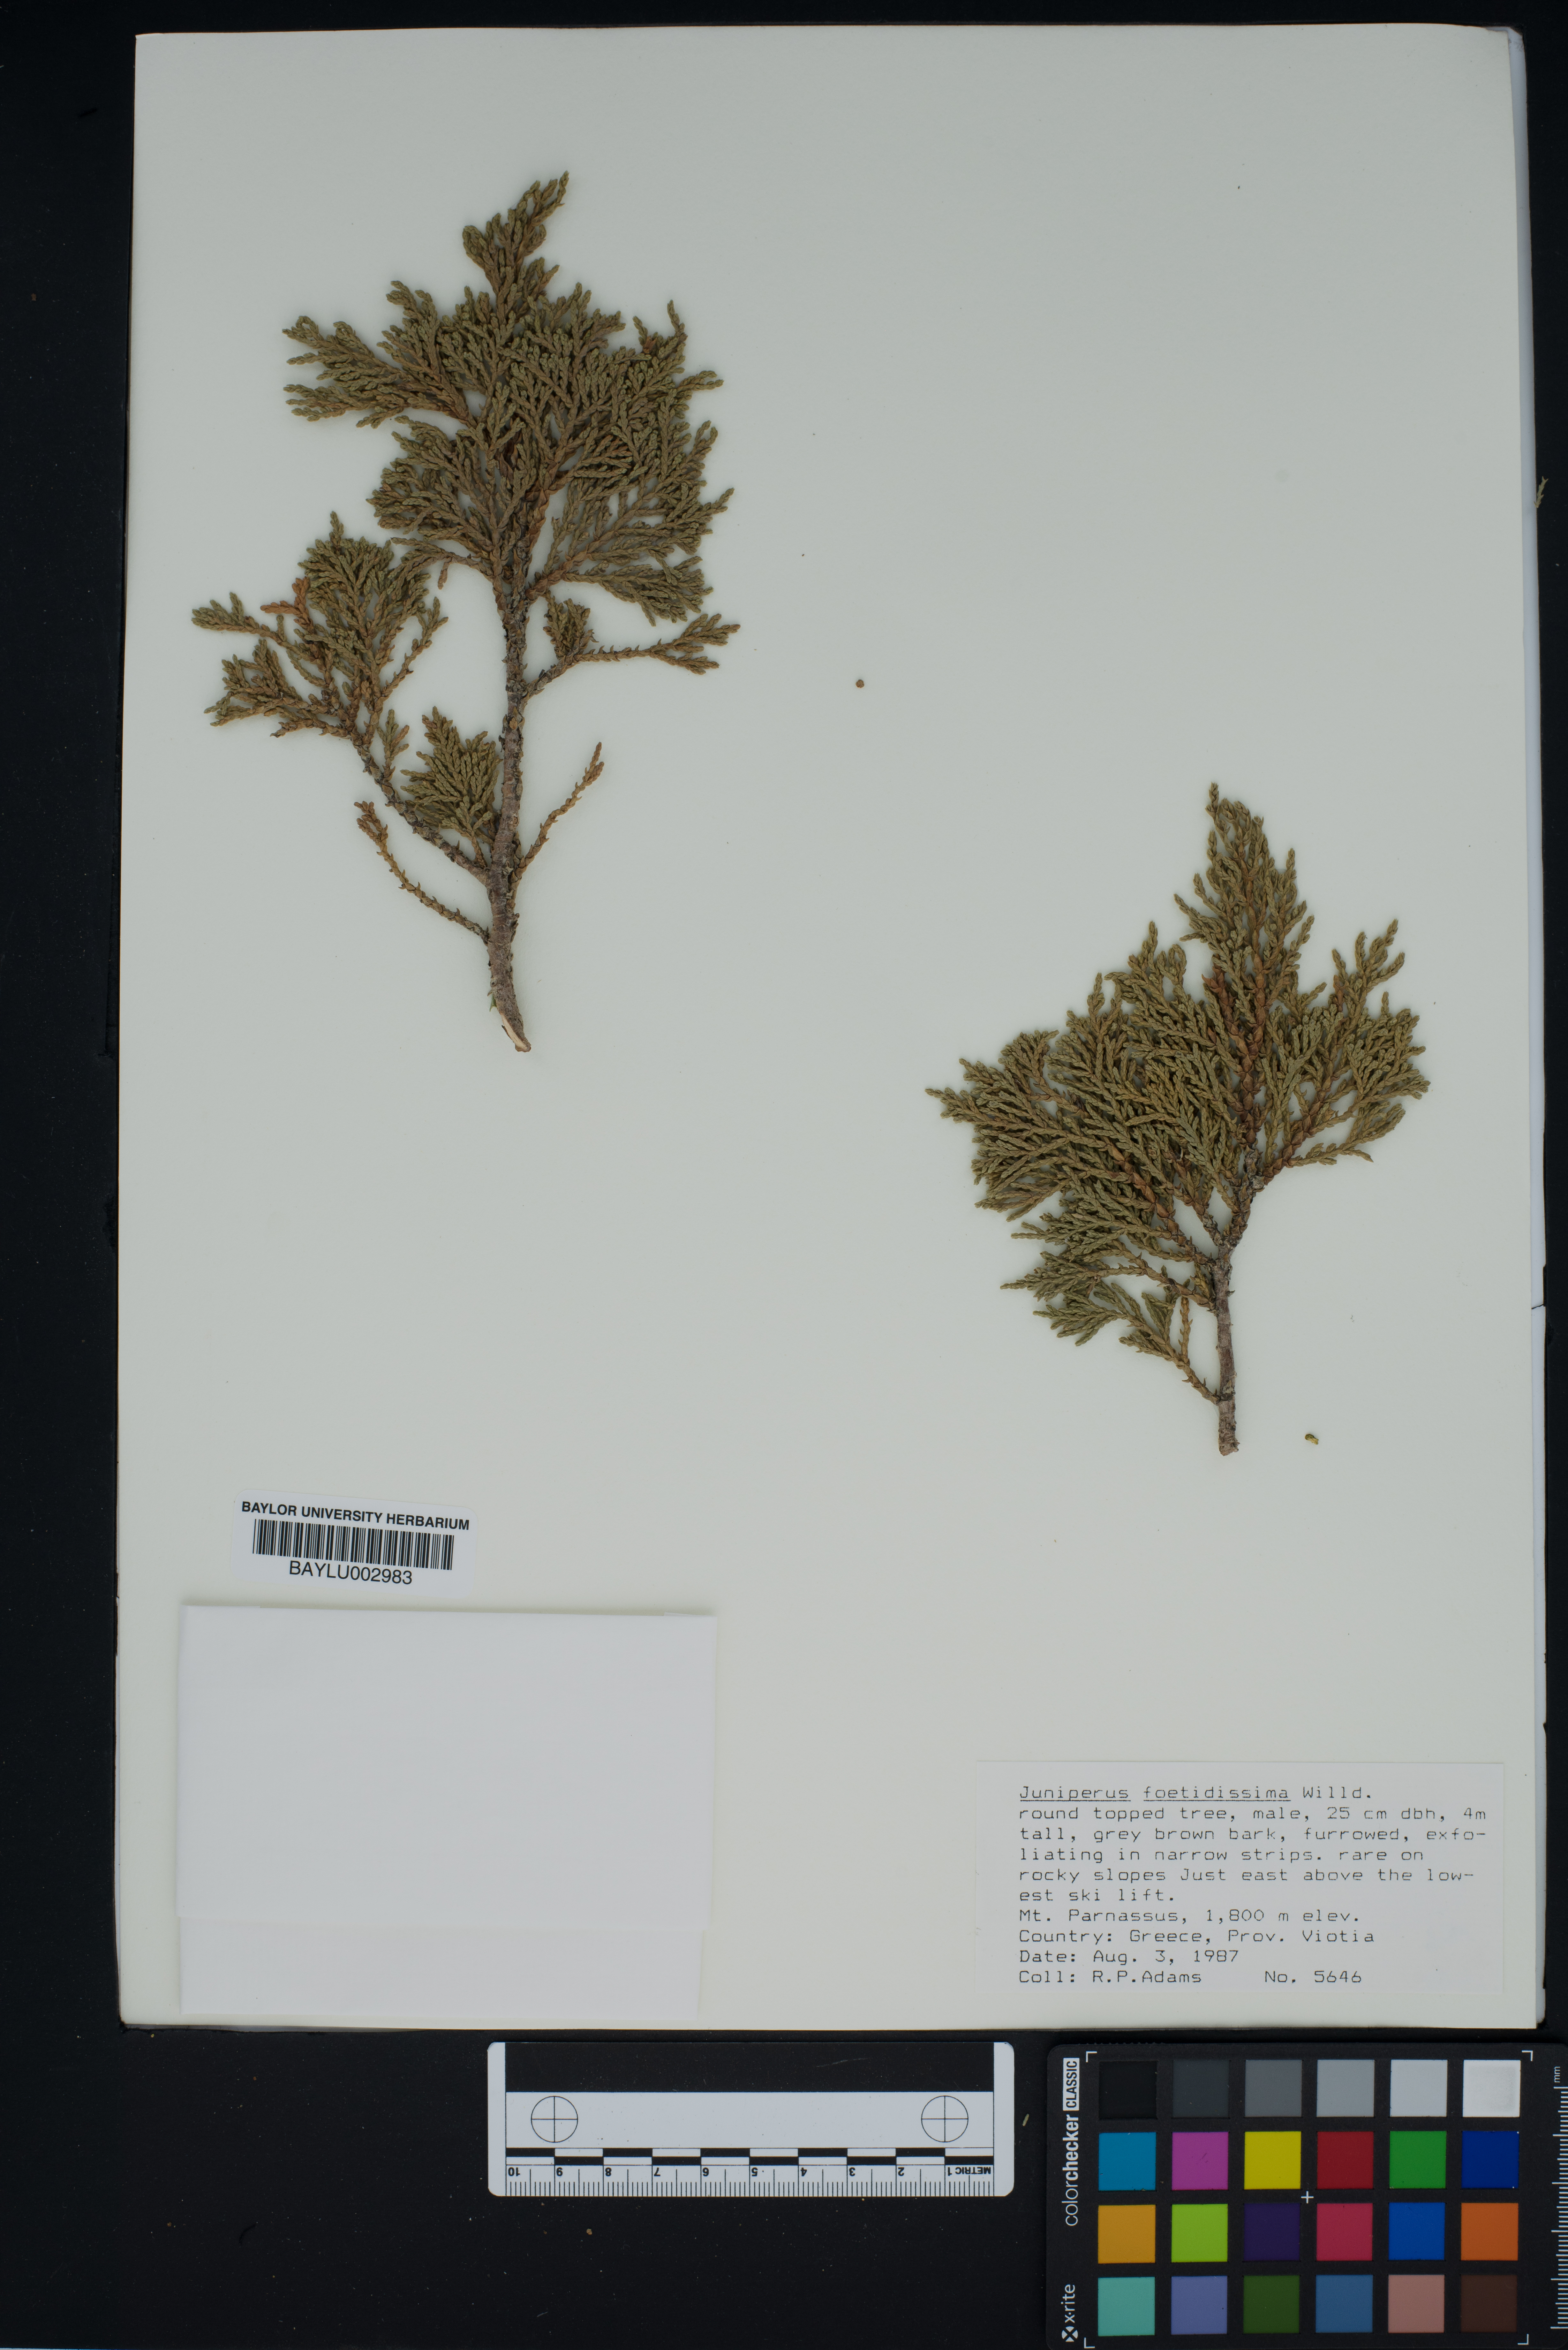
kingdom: Plantae
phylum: Tracheophyta
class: Pinopsida
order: Pinales
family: Cupressaceae
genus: Juniperus
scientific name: Juniperus foetidissima
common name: Stinking juniper
